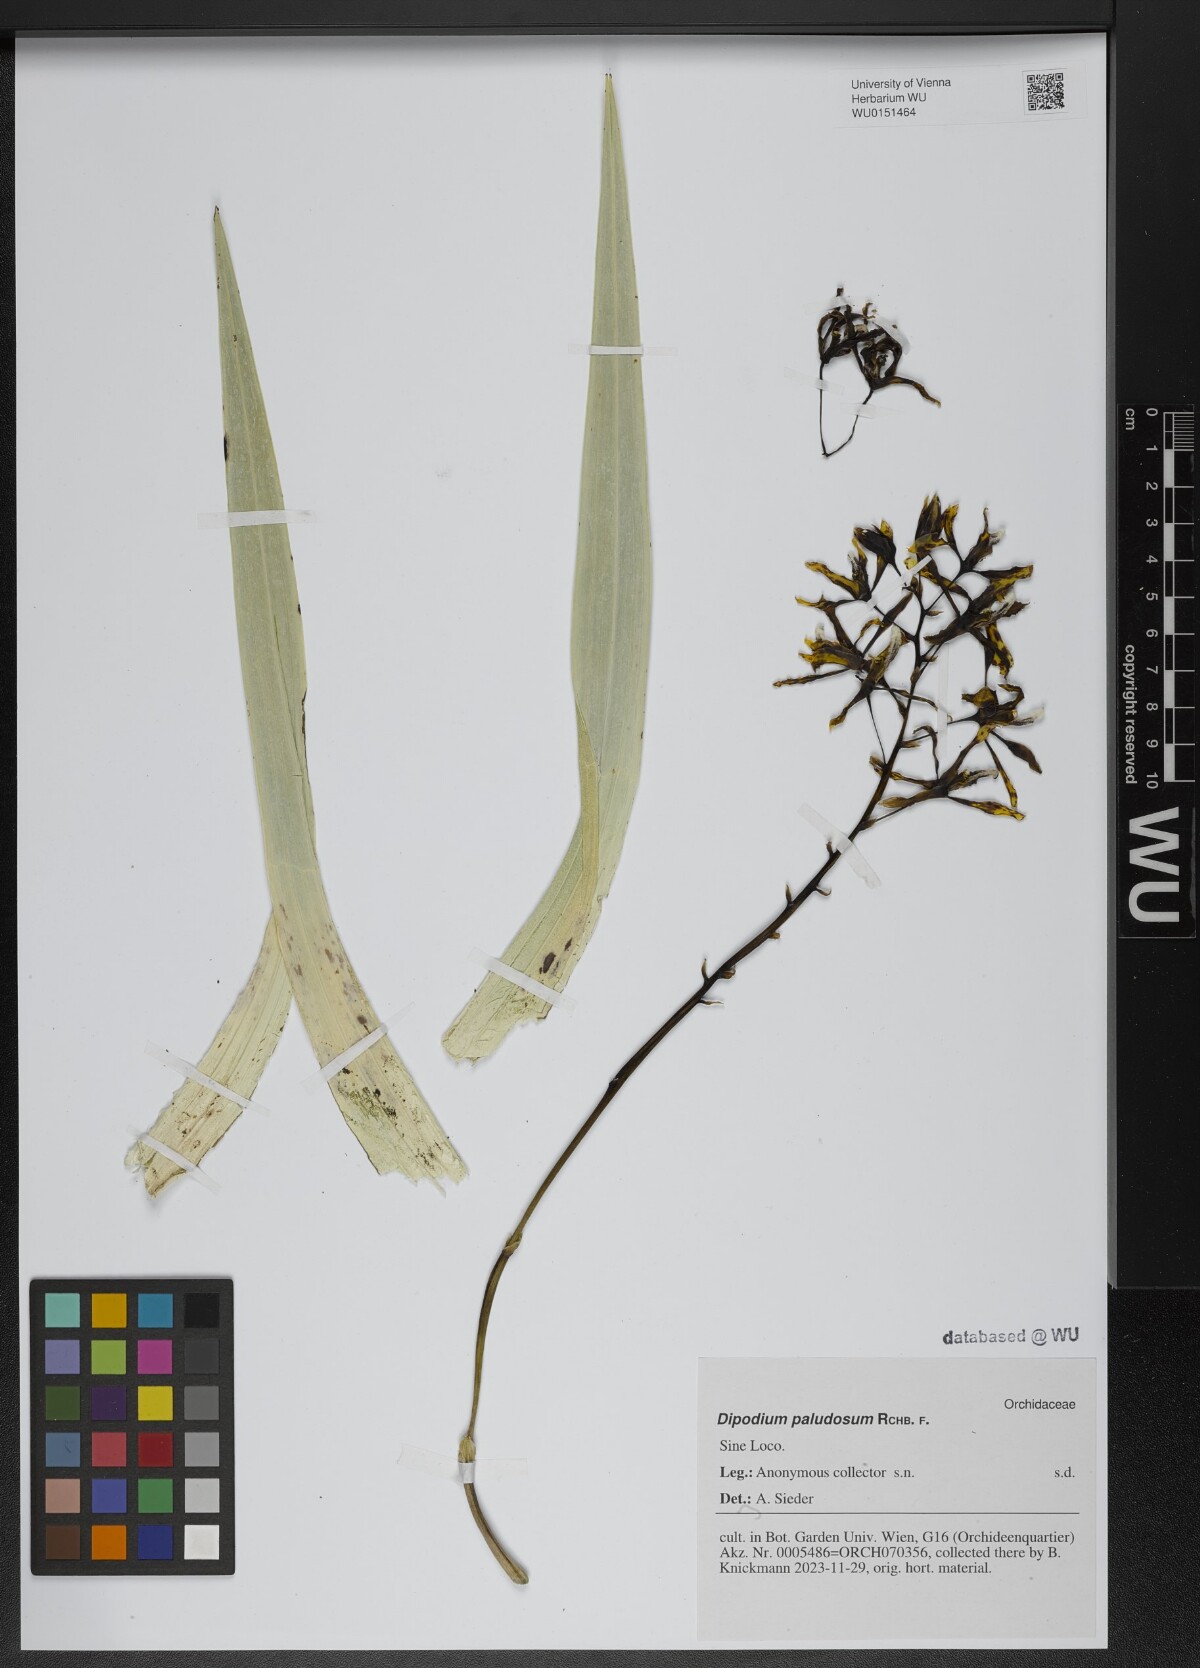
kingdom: Plantae
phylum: Tracheophyta
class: Liliopsida
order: Asparagales
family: Orchidaceae
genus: Dipodium
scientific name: Dipodium paludosum
